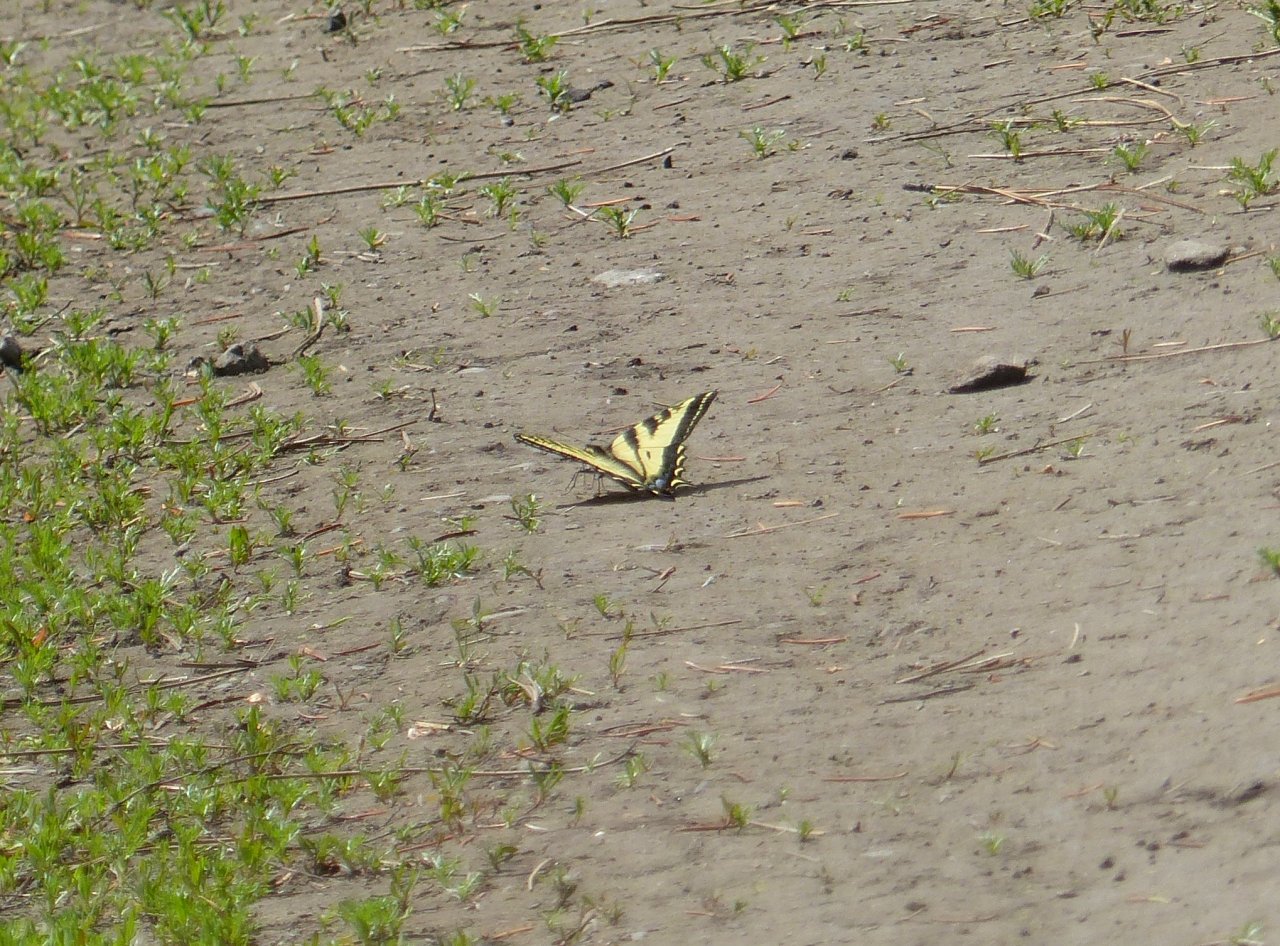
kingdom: Animalia
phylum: Arthropoda
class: Insecta
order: Lepidoptera
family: Papilionidae
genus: Pterourus
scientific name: Pterourus rutulus
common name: Western Tiger Swallowtail
